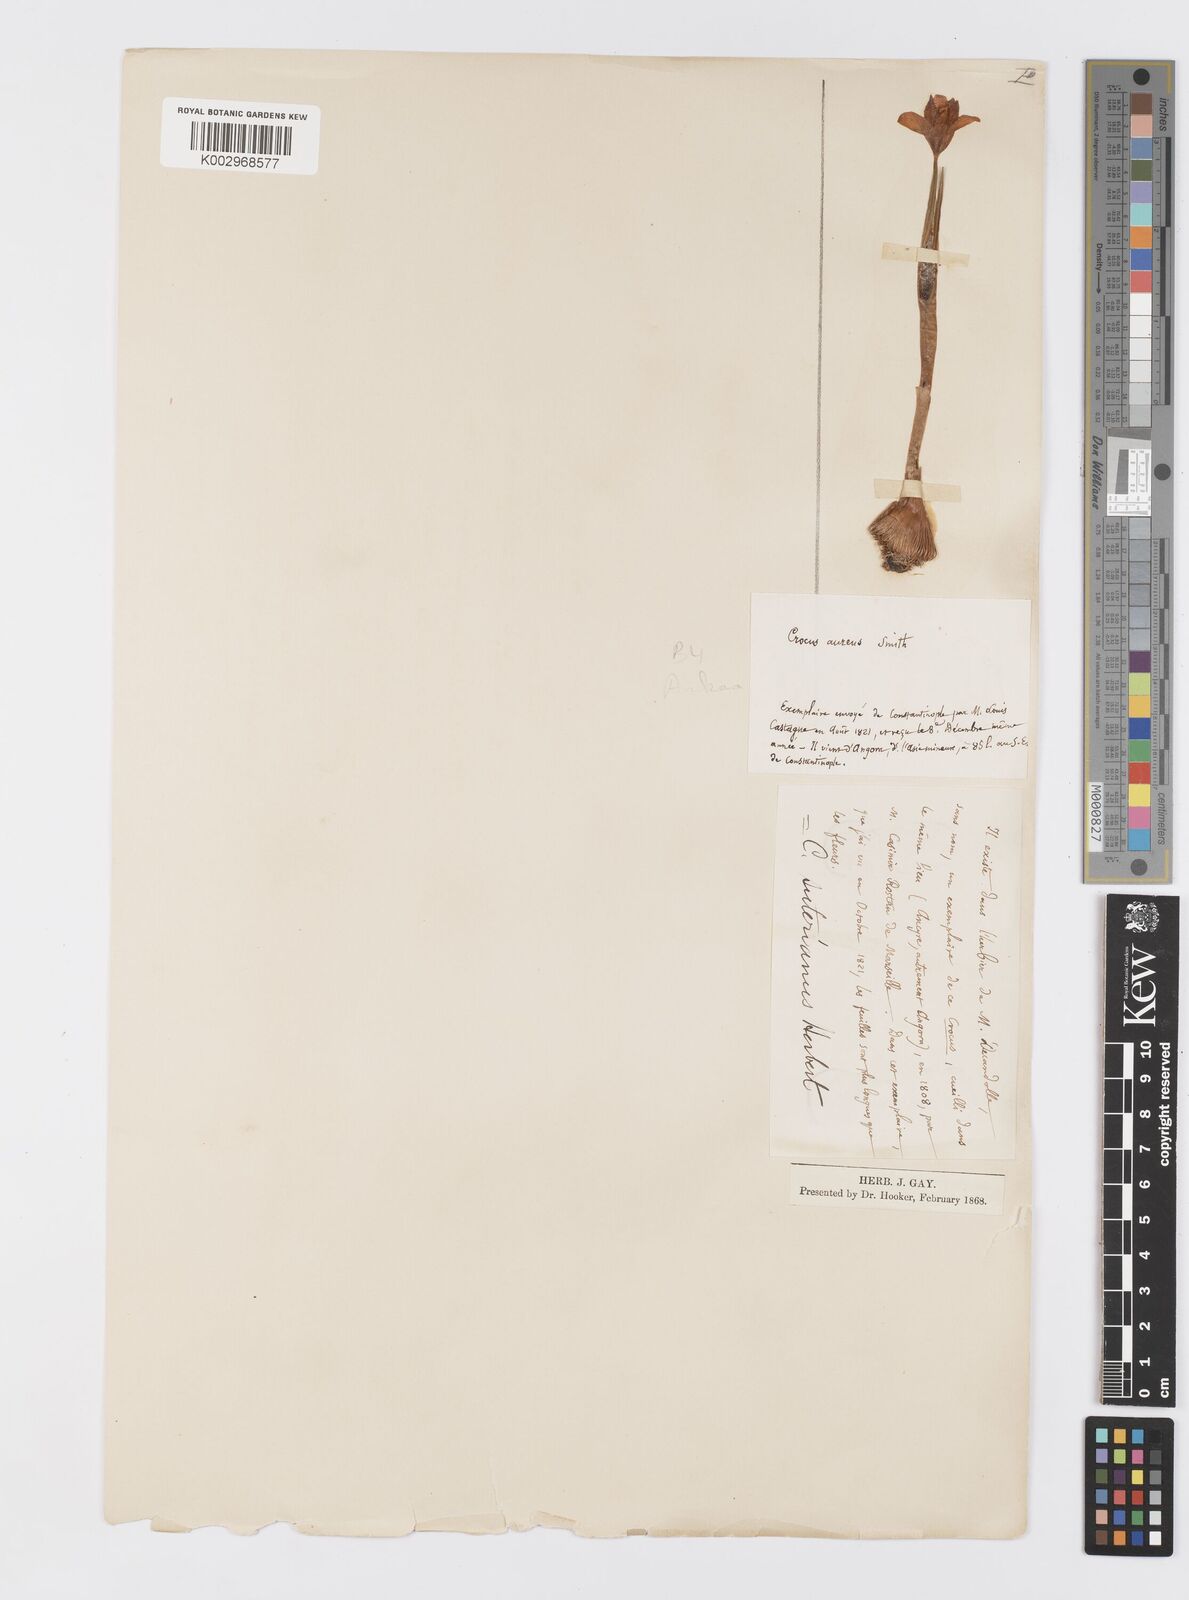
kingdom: Plantae
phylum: Tracheophyta
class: Liliopsida
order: Asparagales
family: Iridaceae
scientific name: Iridaceae
